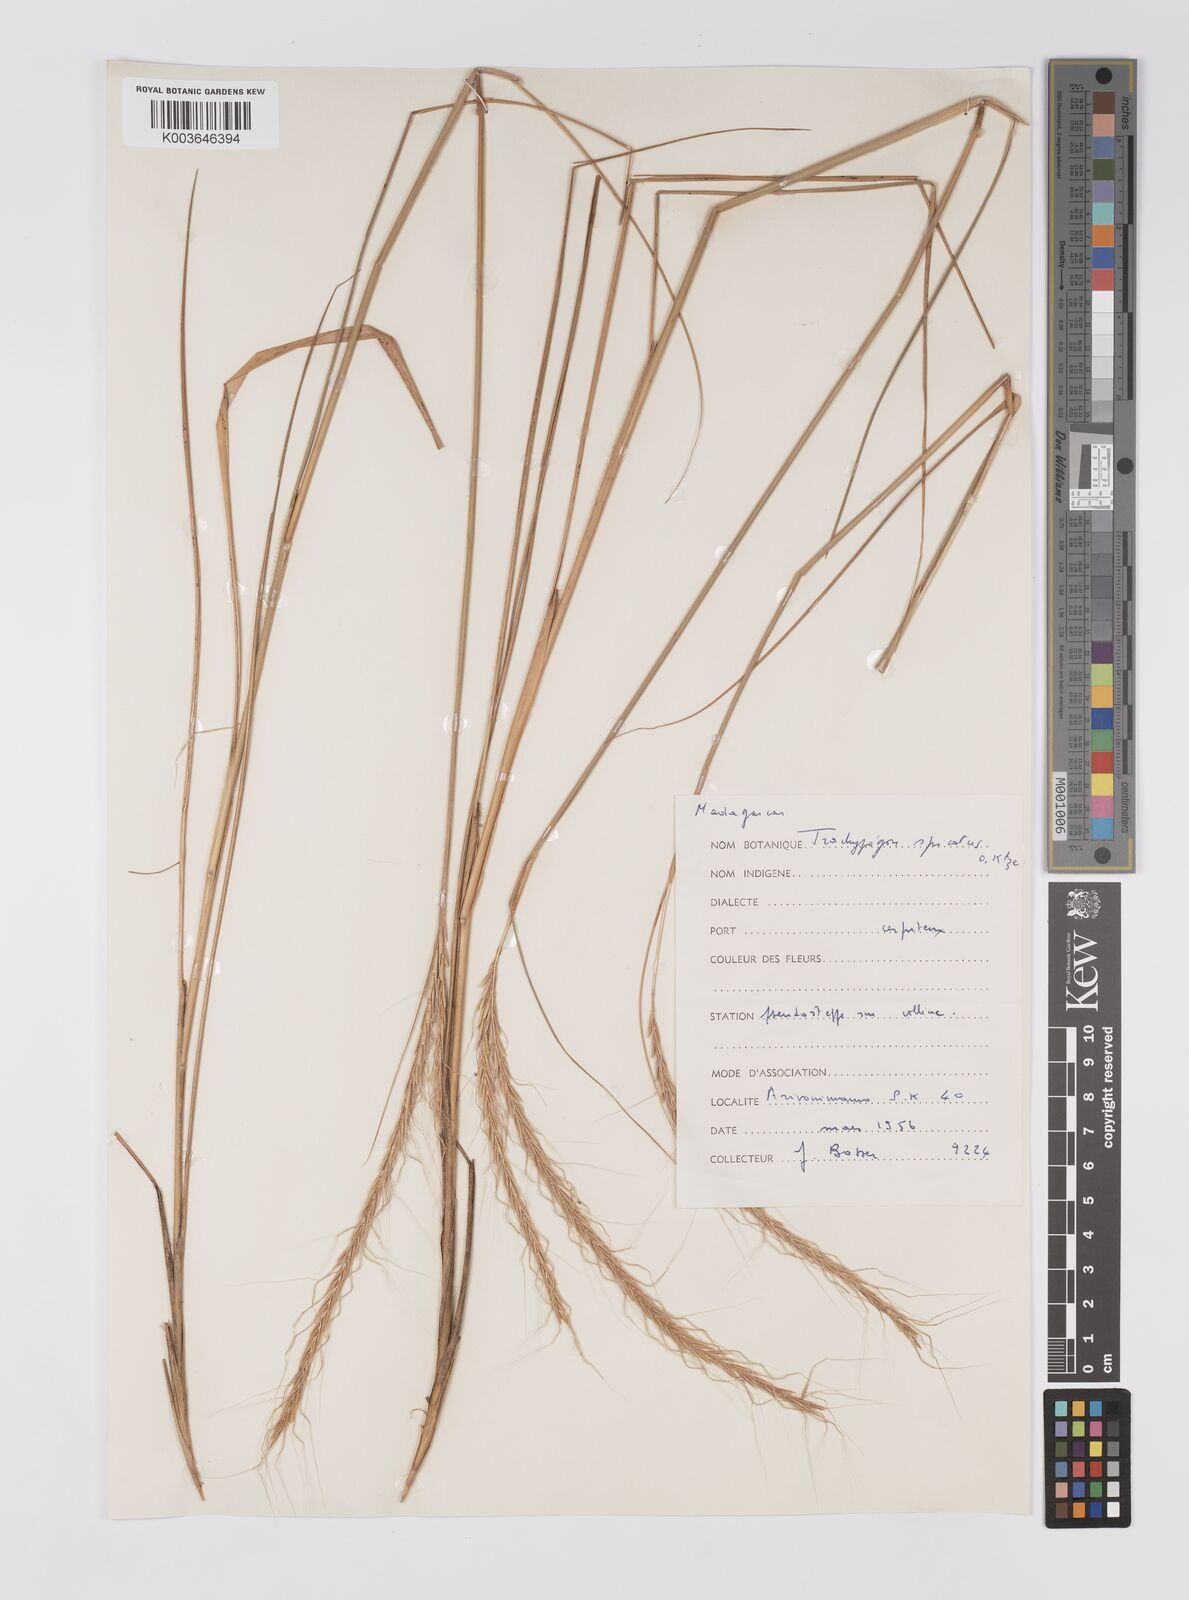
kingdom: Plantae
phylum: Tracheophyta
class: Liliopsida
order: Poales
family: Poaceae
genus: Trachypogon
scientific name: Trachypogon spicatus
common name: Crinkle-awn
